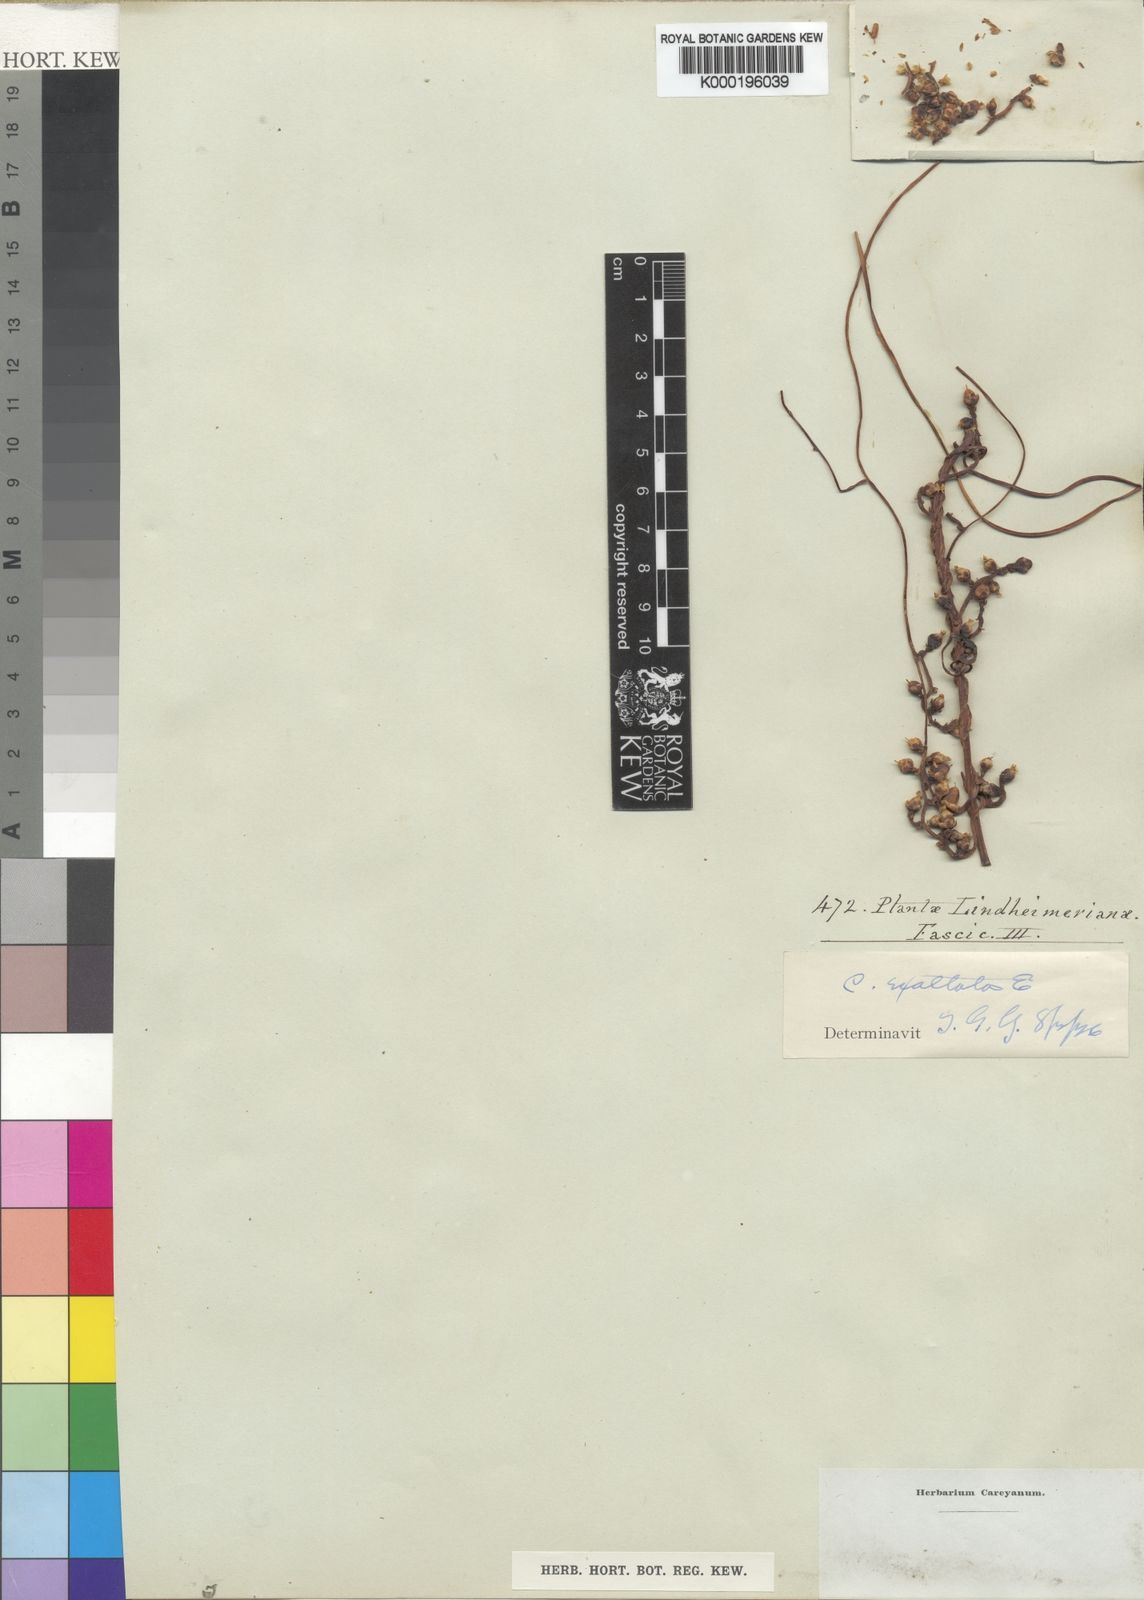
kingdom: Plantae
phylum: Tracheophyta
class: Magnoliopsida
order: Solanales
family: Convolvulaceae
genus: Cuscuta
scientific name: Cuscuta exaltata
